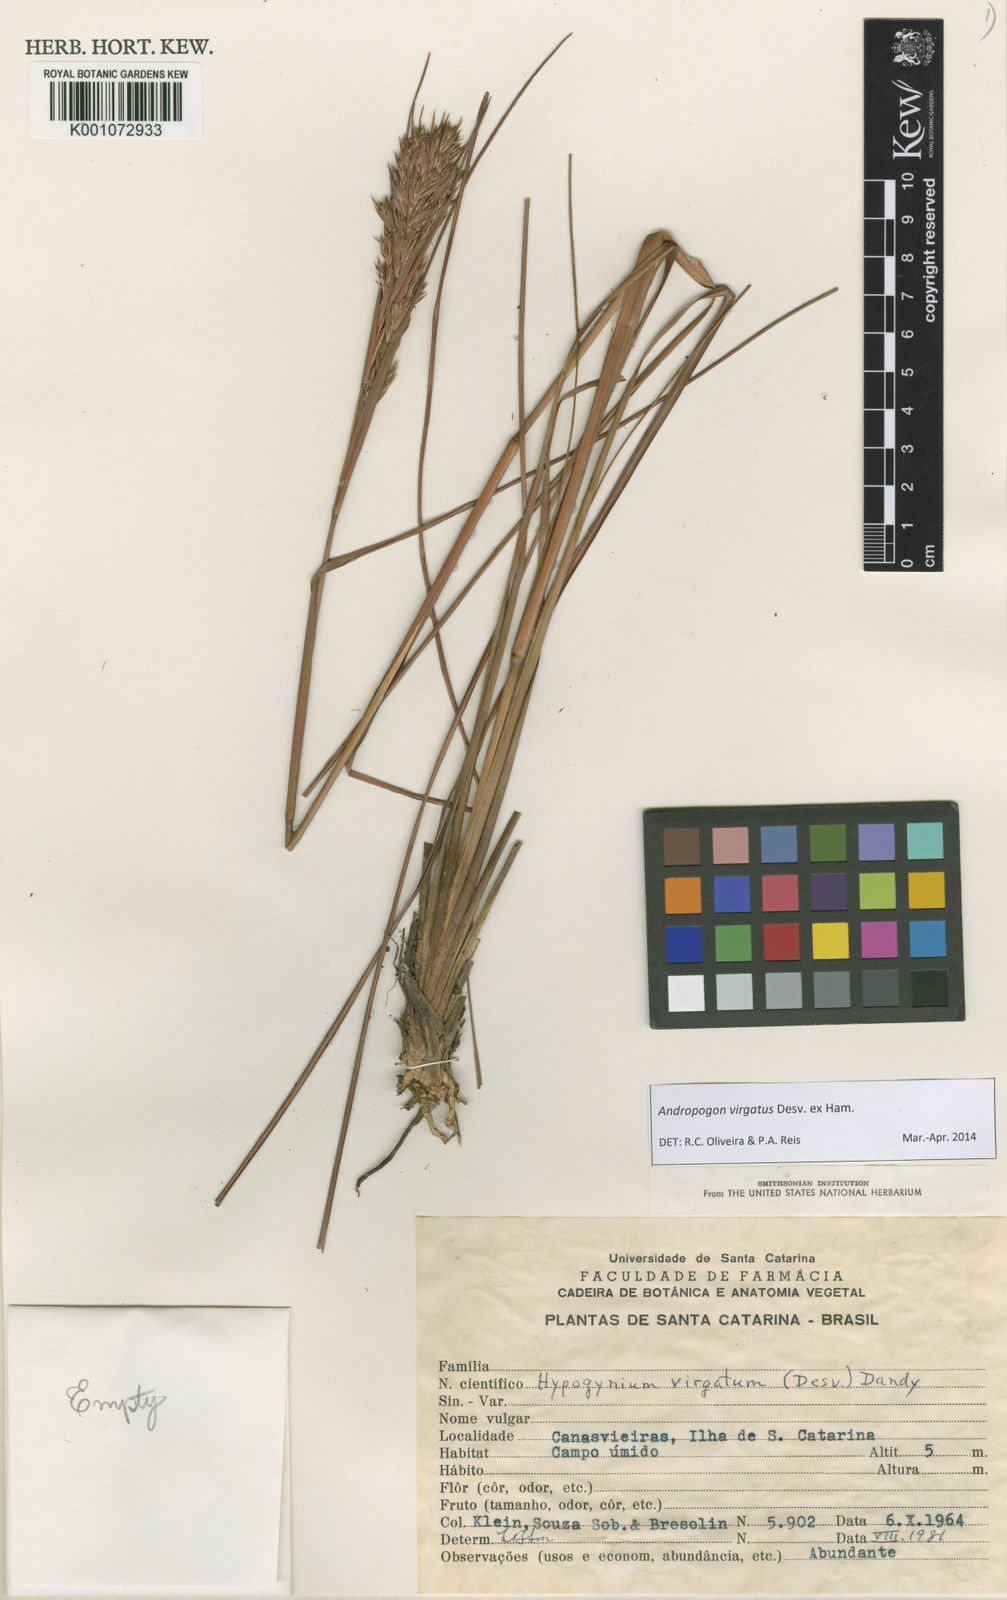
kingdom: Plantae
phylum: Tracheophyta
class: Liliopsida
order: Poales
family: Poaceae
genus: Andropogon
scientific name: Andropogon virgatus
